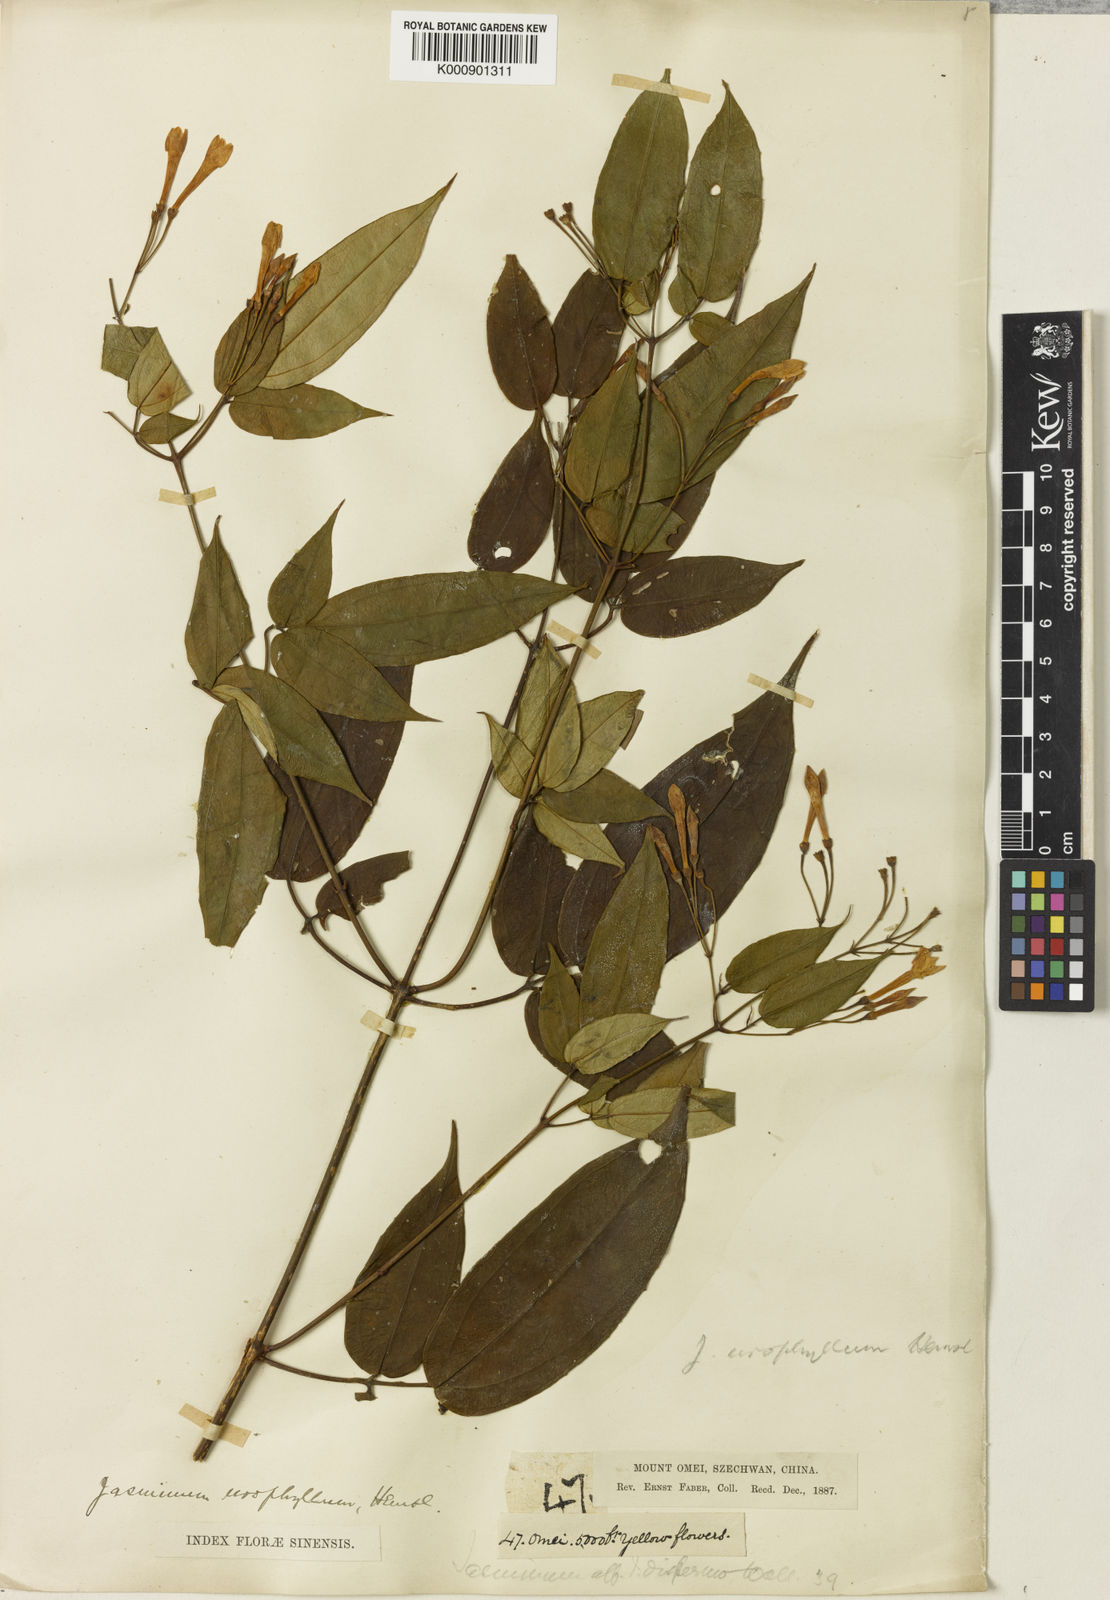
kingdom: Plantae
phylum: Tracheophyta
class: Magnoliopsida
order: Lamiales
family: Oleaceae
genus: Jasminum
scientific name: Jasminum urophyllum
